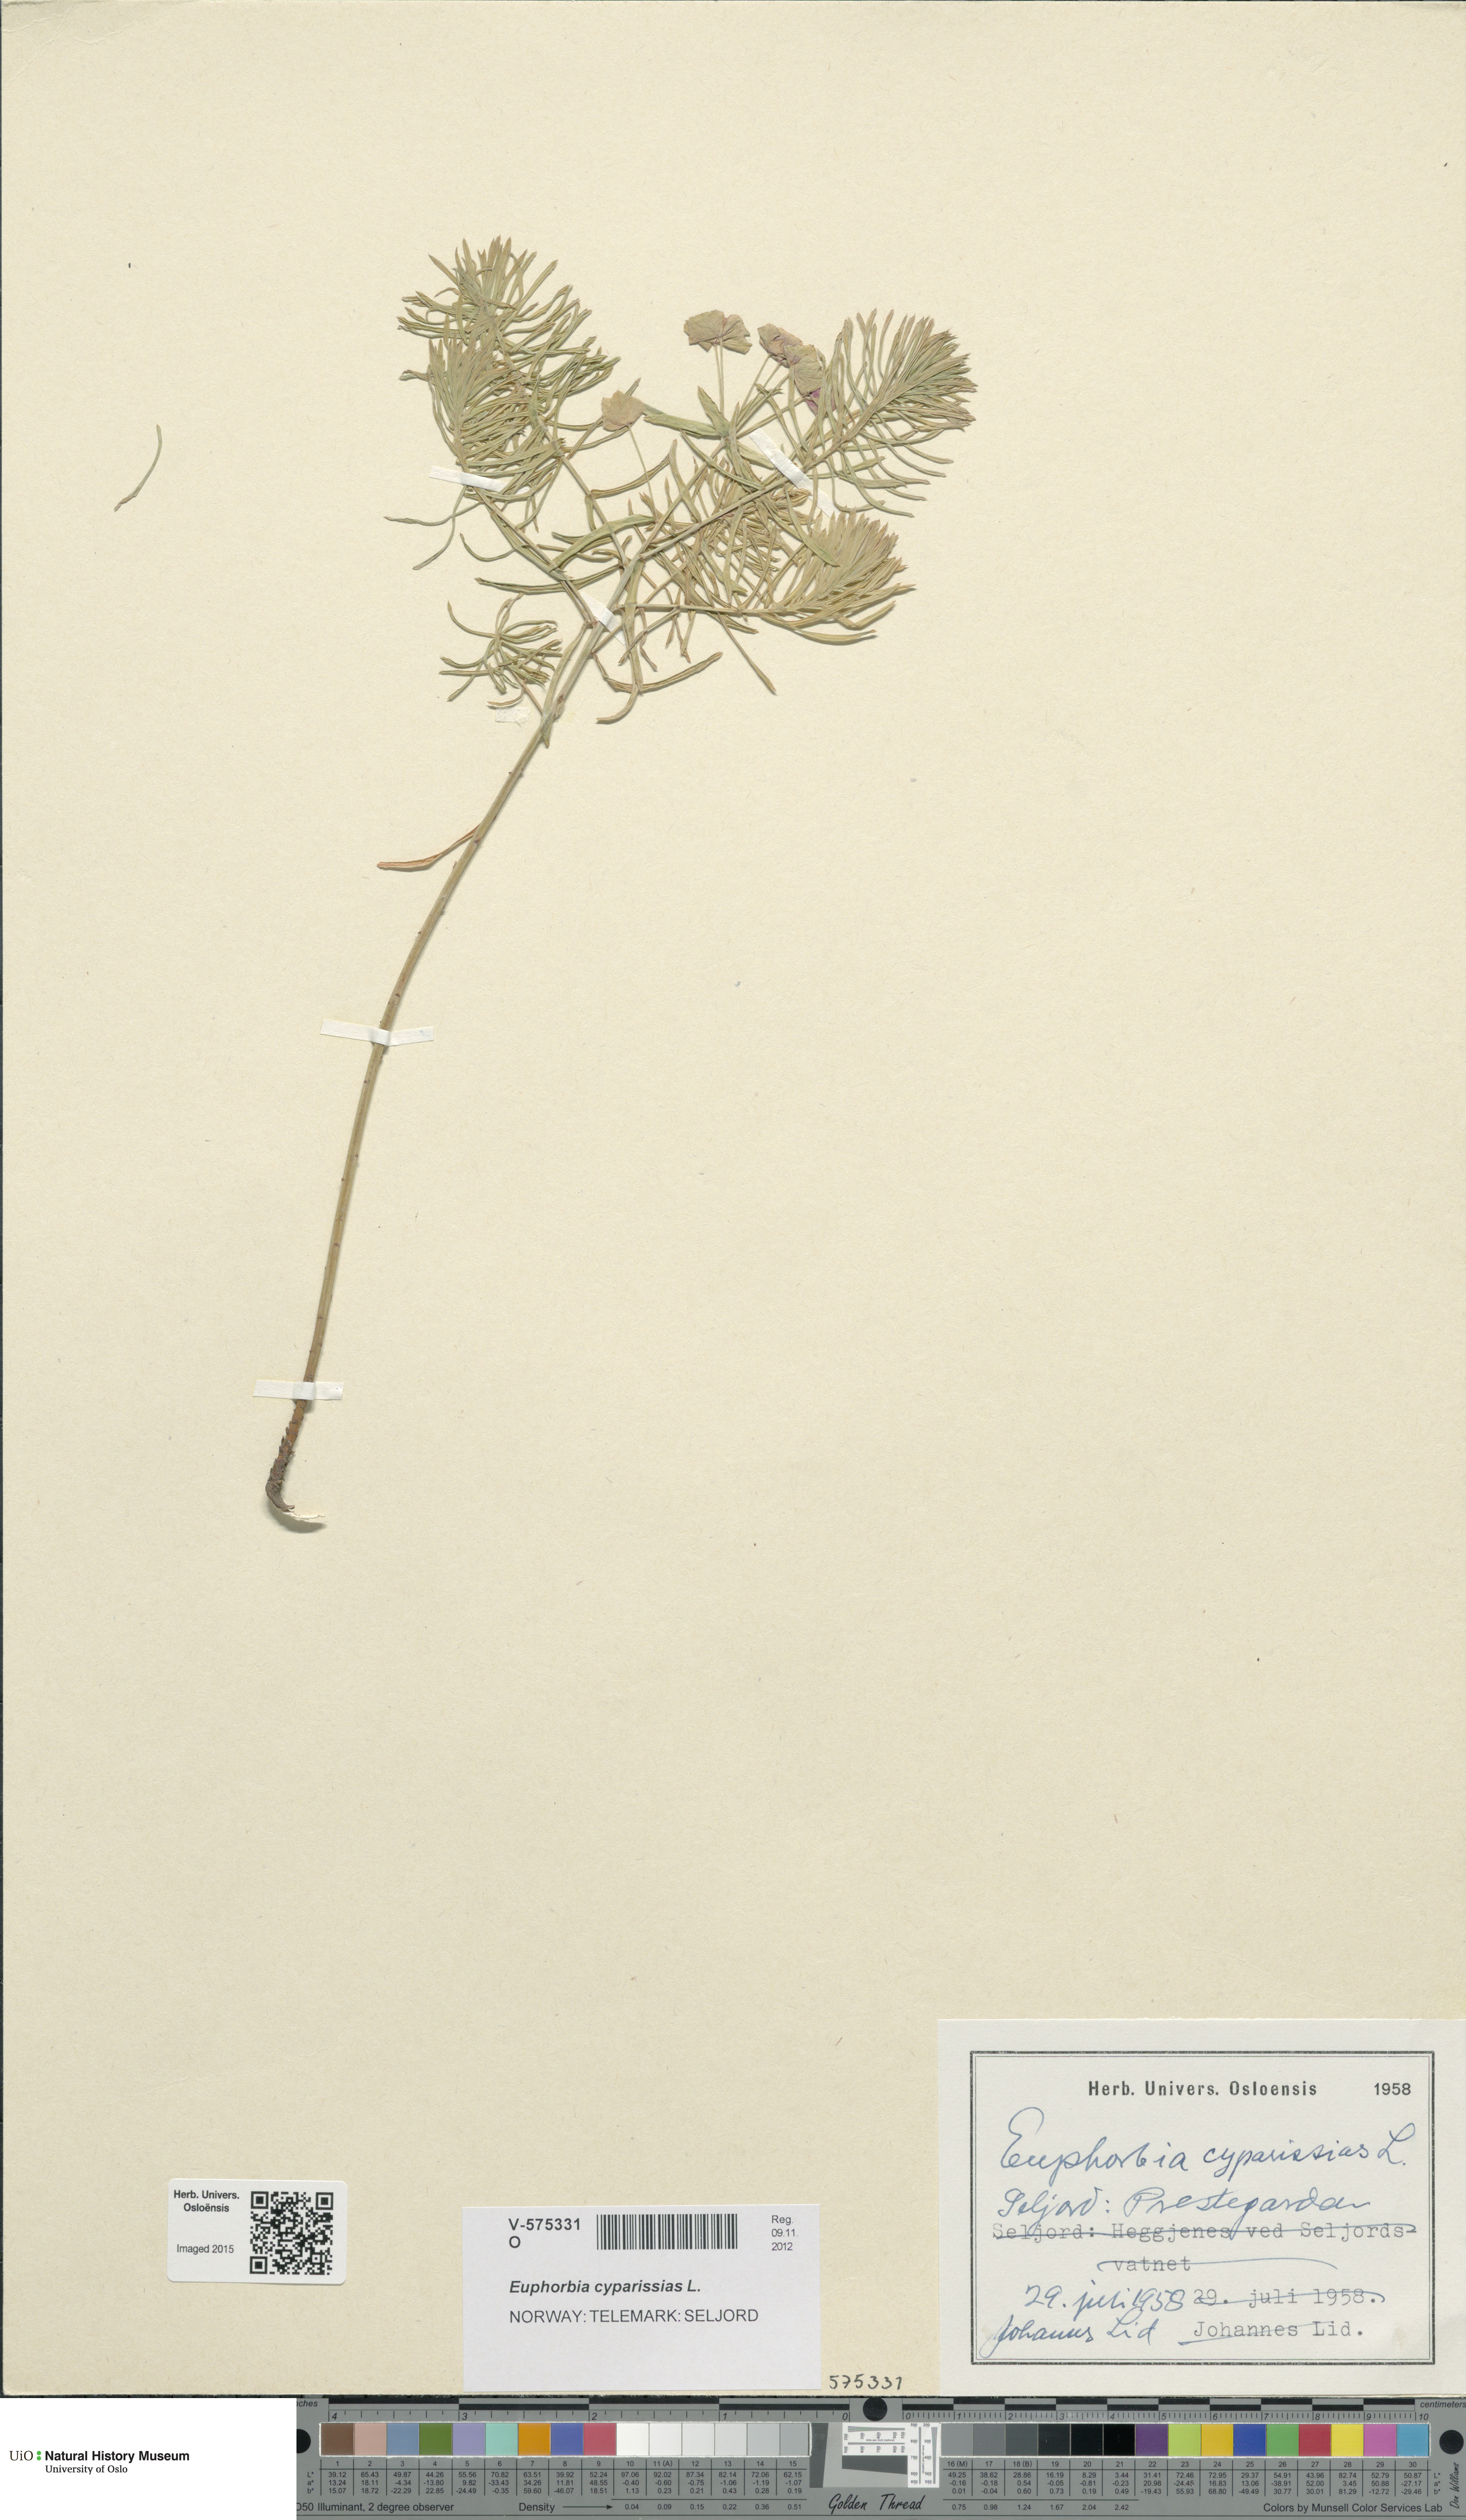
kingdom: Plantae
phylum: Tracheophyta
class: Magnoliopsida
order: Malpighiales
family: Euphorbiaceae
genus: Euphorbia
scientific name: Euphorbia cyparissias
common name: Cypress spurge
